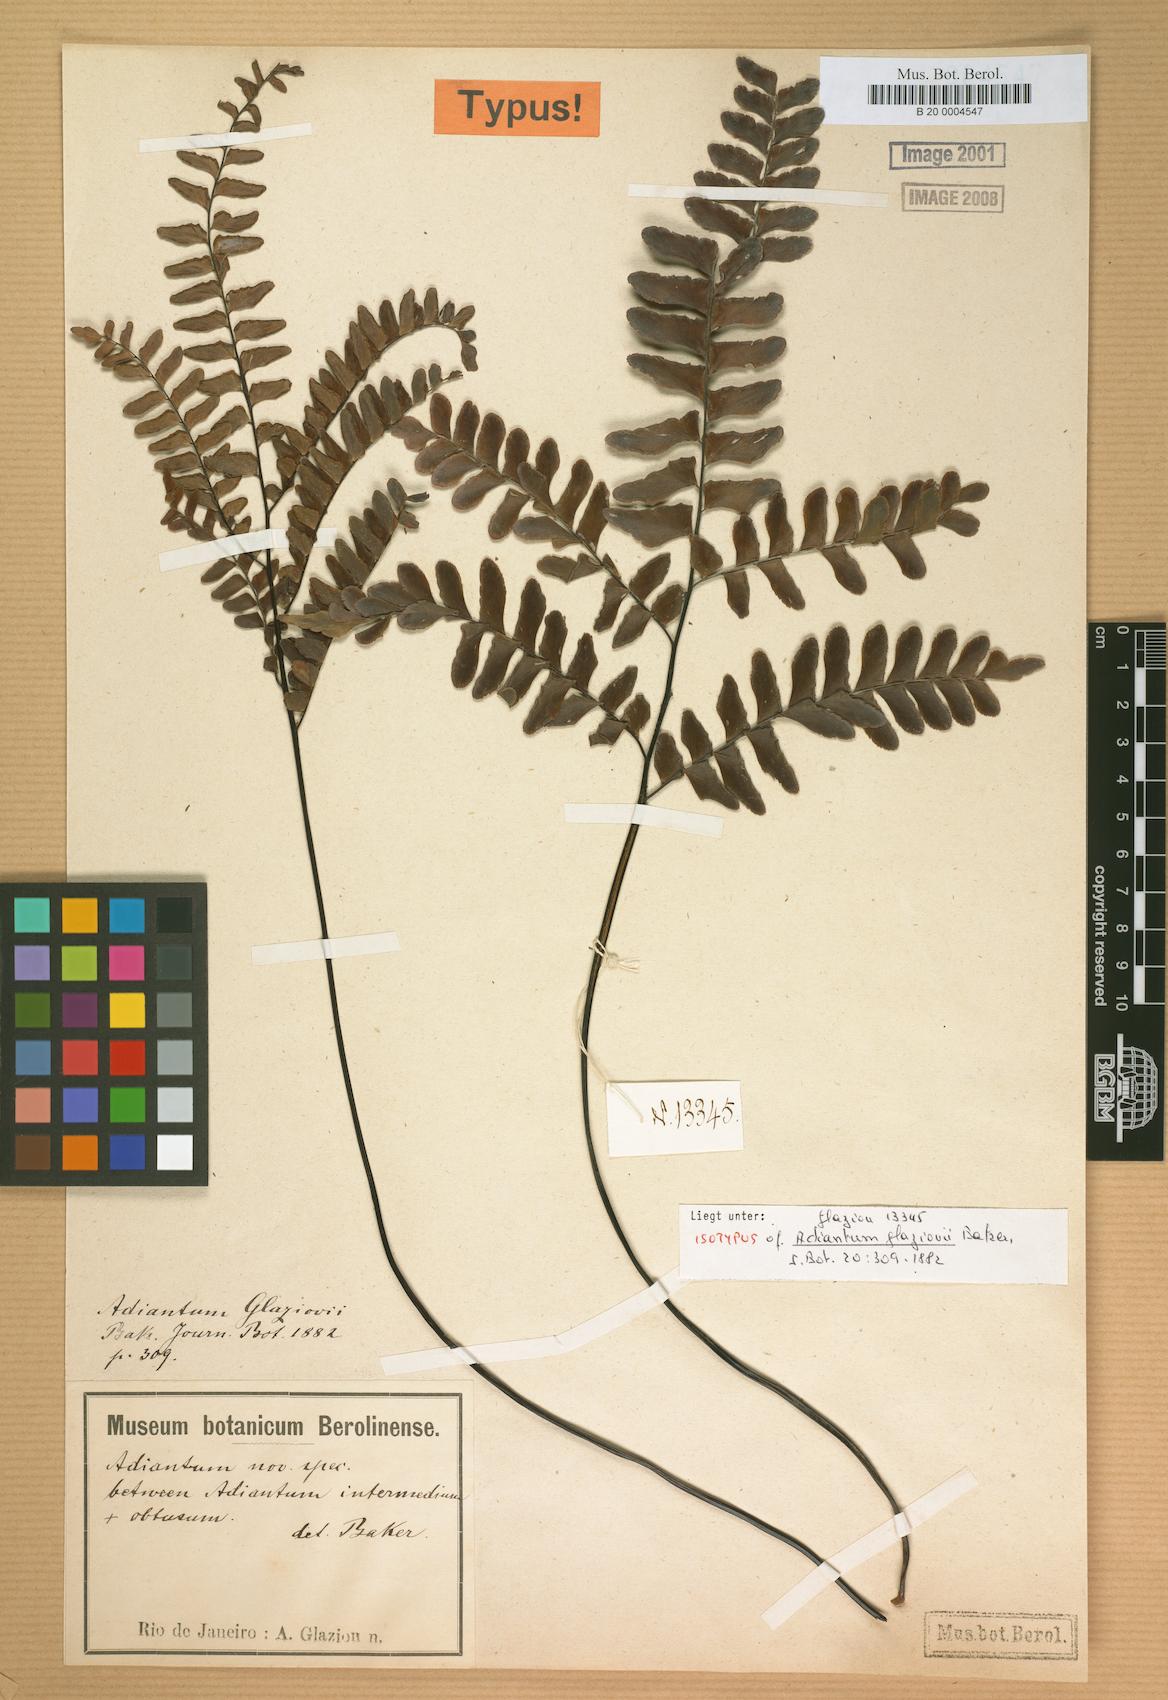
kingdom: Plantae
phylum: Tracheophyta
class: Polypodiopsida
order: Polypodiales
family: Pteridaceae
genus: Adiantum
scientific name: Adiantum latifolium
